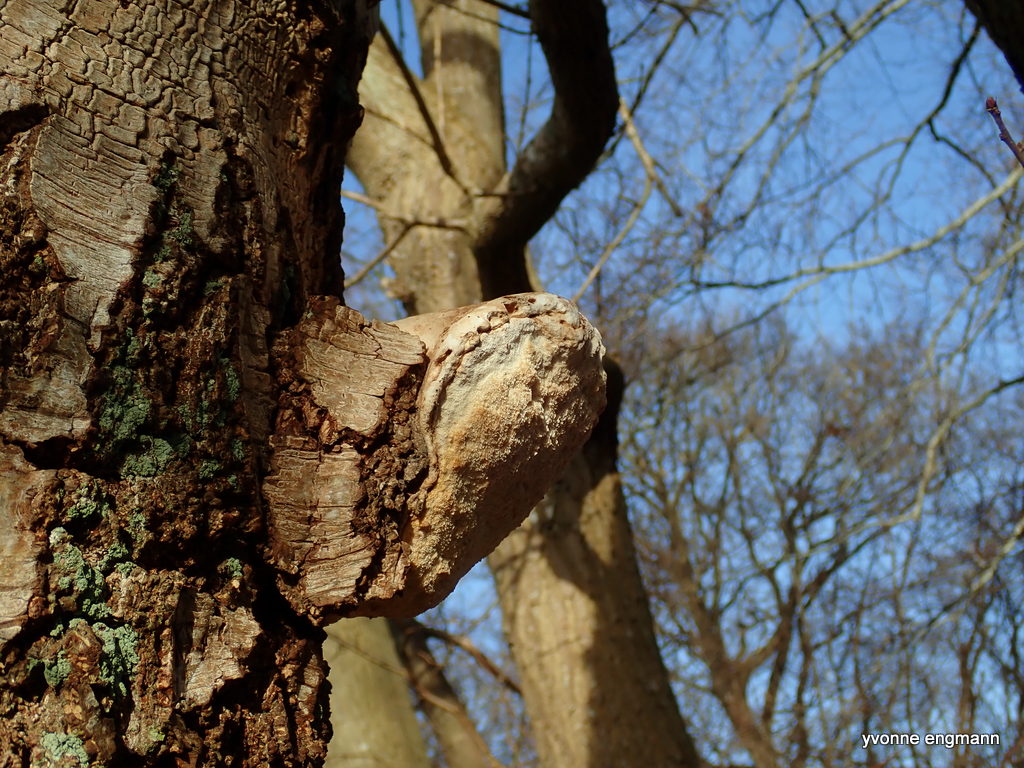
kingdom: Fungi
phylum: Basidiomycota
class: Agaricomycetes
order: Polyporales
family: Fomitopsidaceae
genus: Fomitopsis
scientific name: Fomitopsis betulina
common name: birkeporesvamp
